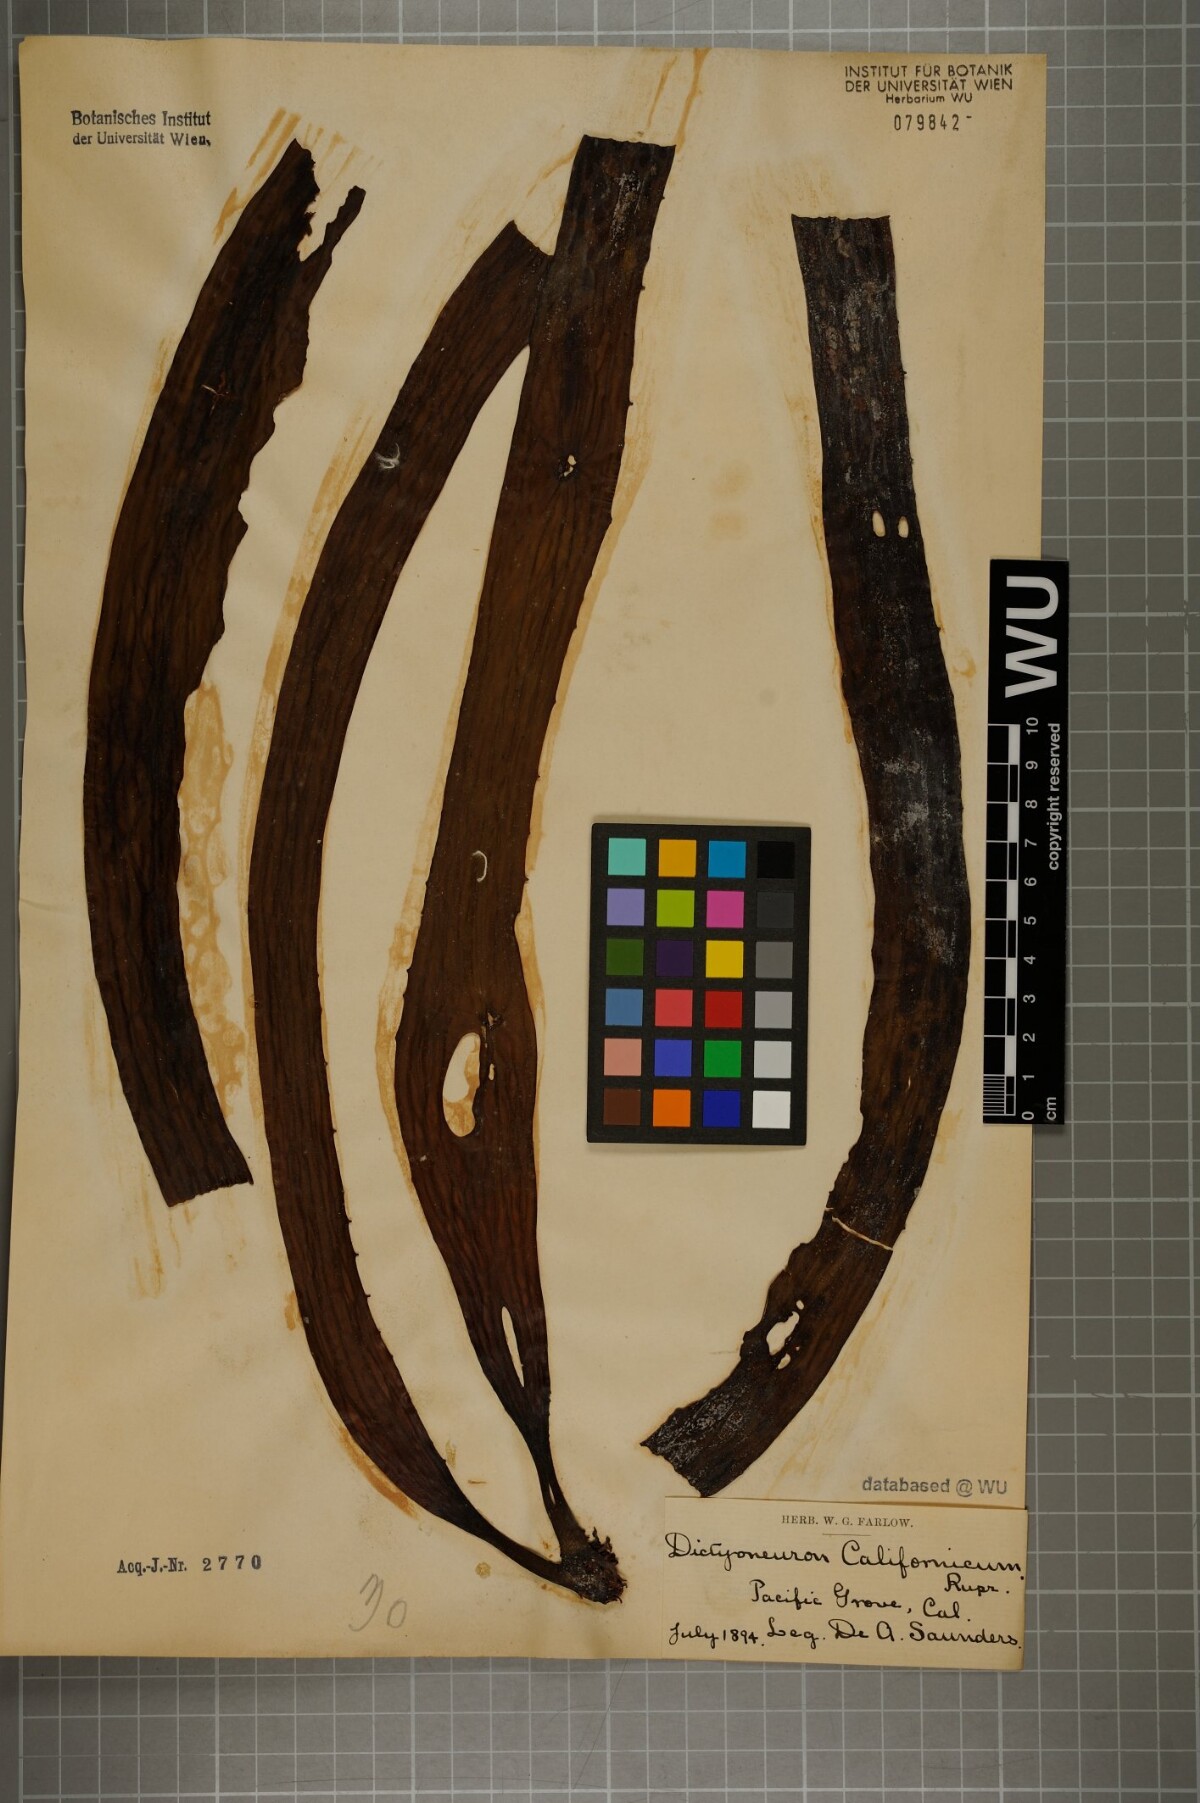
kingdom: Chromista
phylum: Ochrophyta
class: Phaeophyceae
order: Laminariales
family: Costariaceae
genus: Dictyoneurum
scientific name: Dictyoneurum californicum
